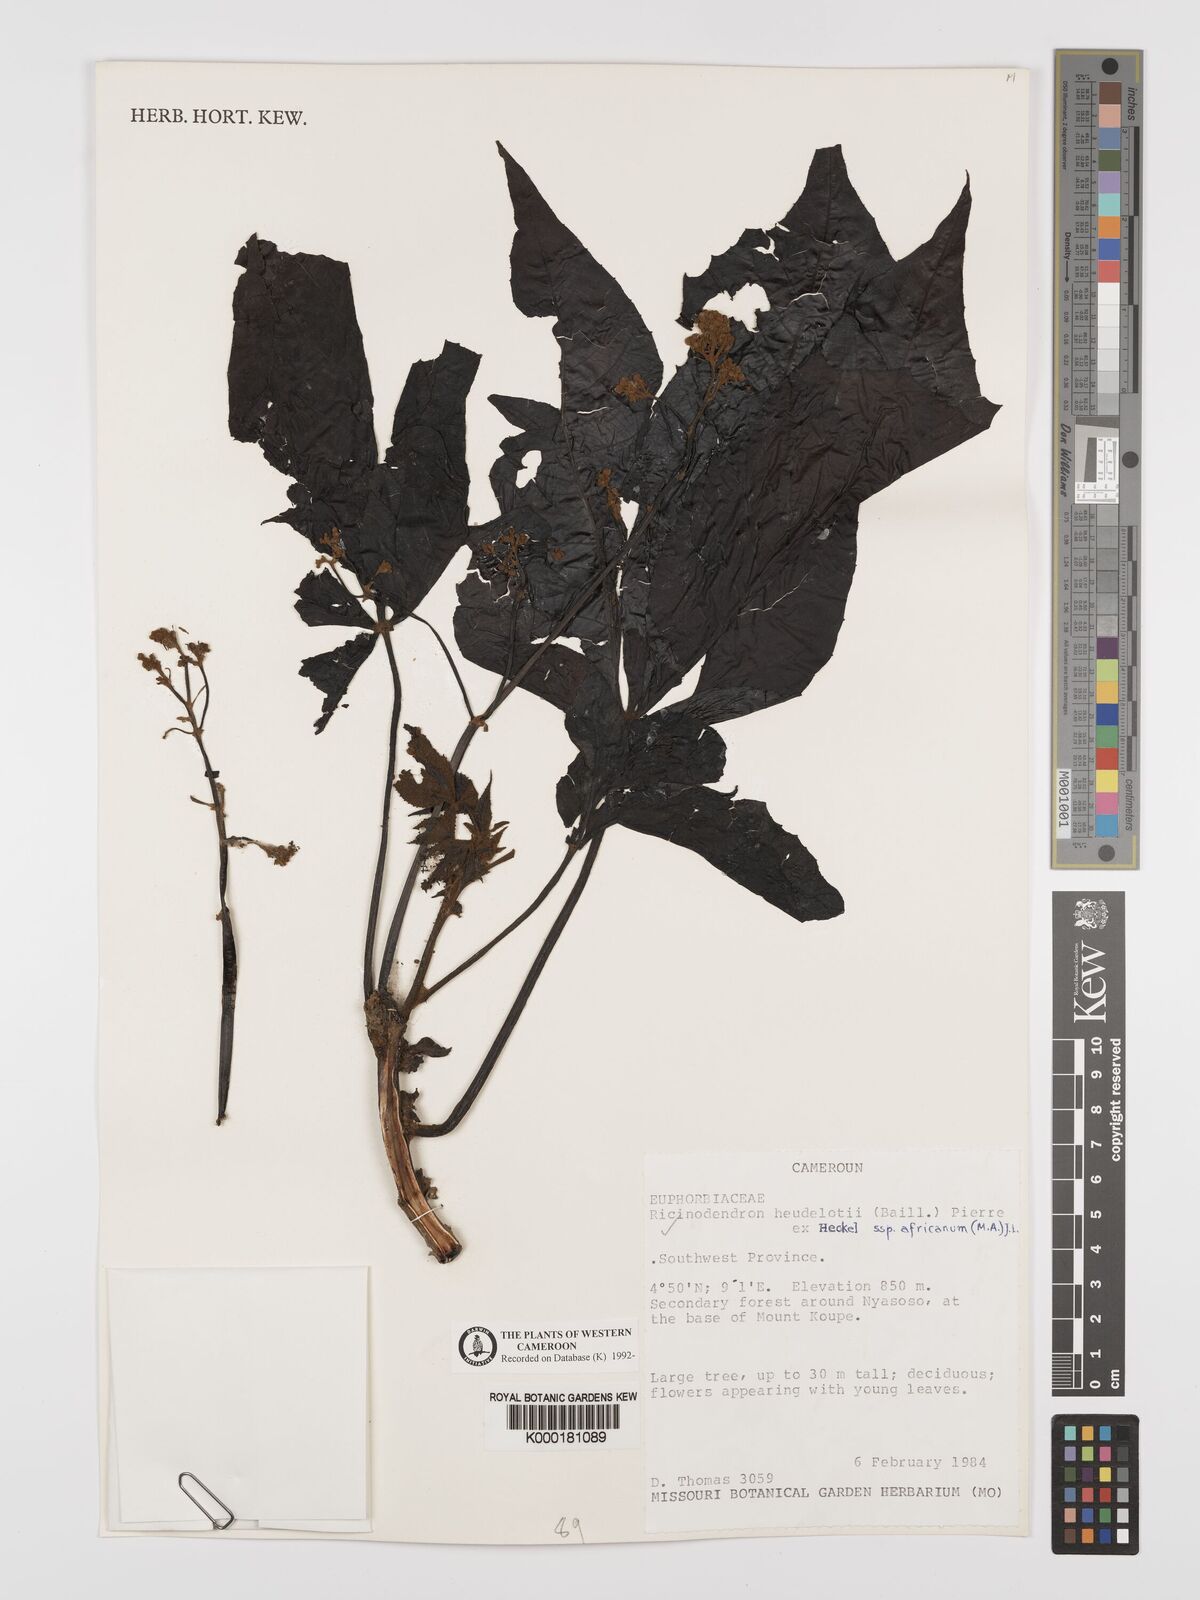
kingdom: Plantae
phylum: Tracheophyta
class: Magnoliopsida
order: Malpighiales
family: Euphorbiaceae
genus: Ricinodendron
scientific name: Ricinodendron heudelotii
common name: African nut-tree
